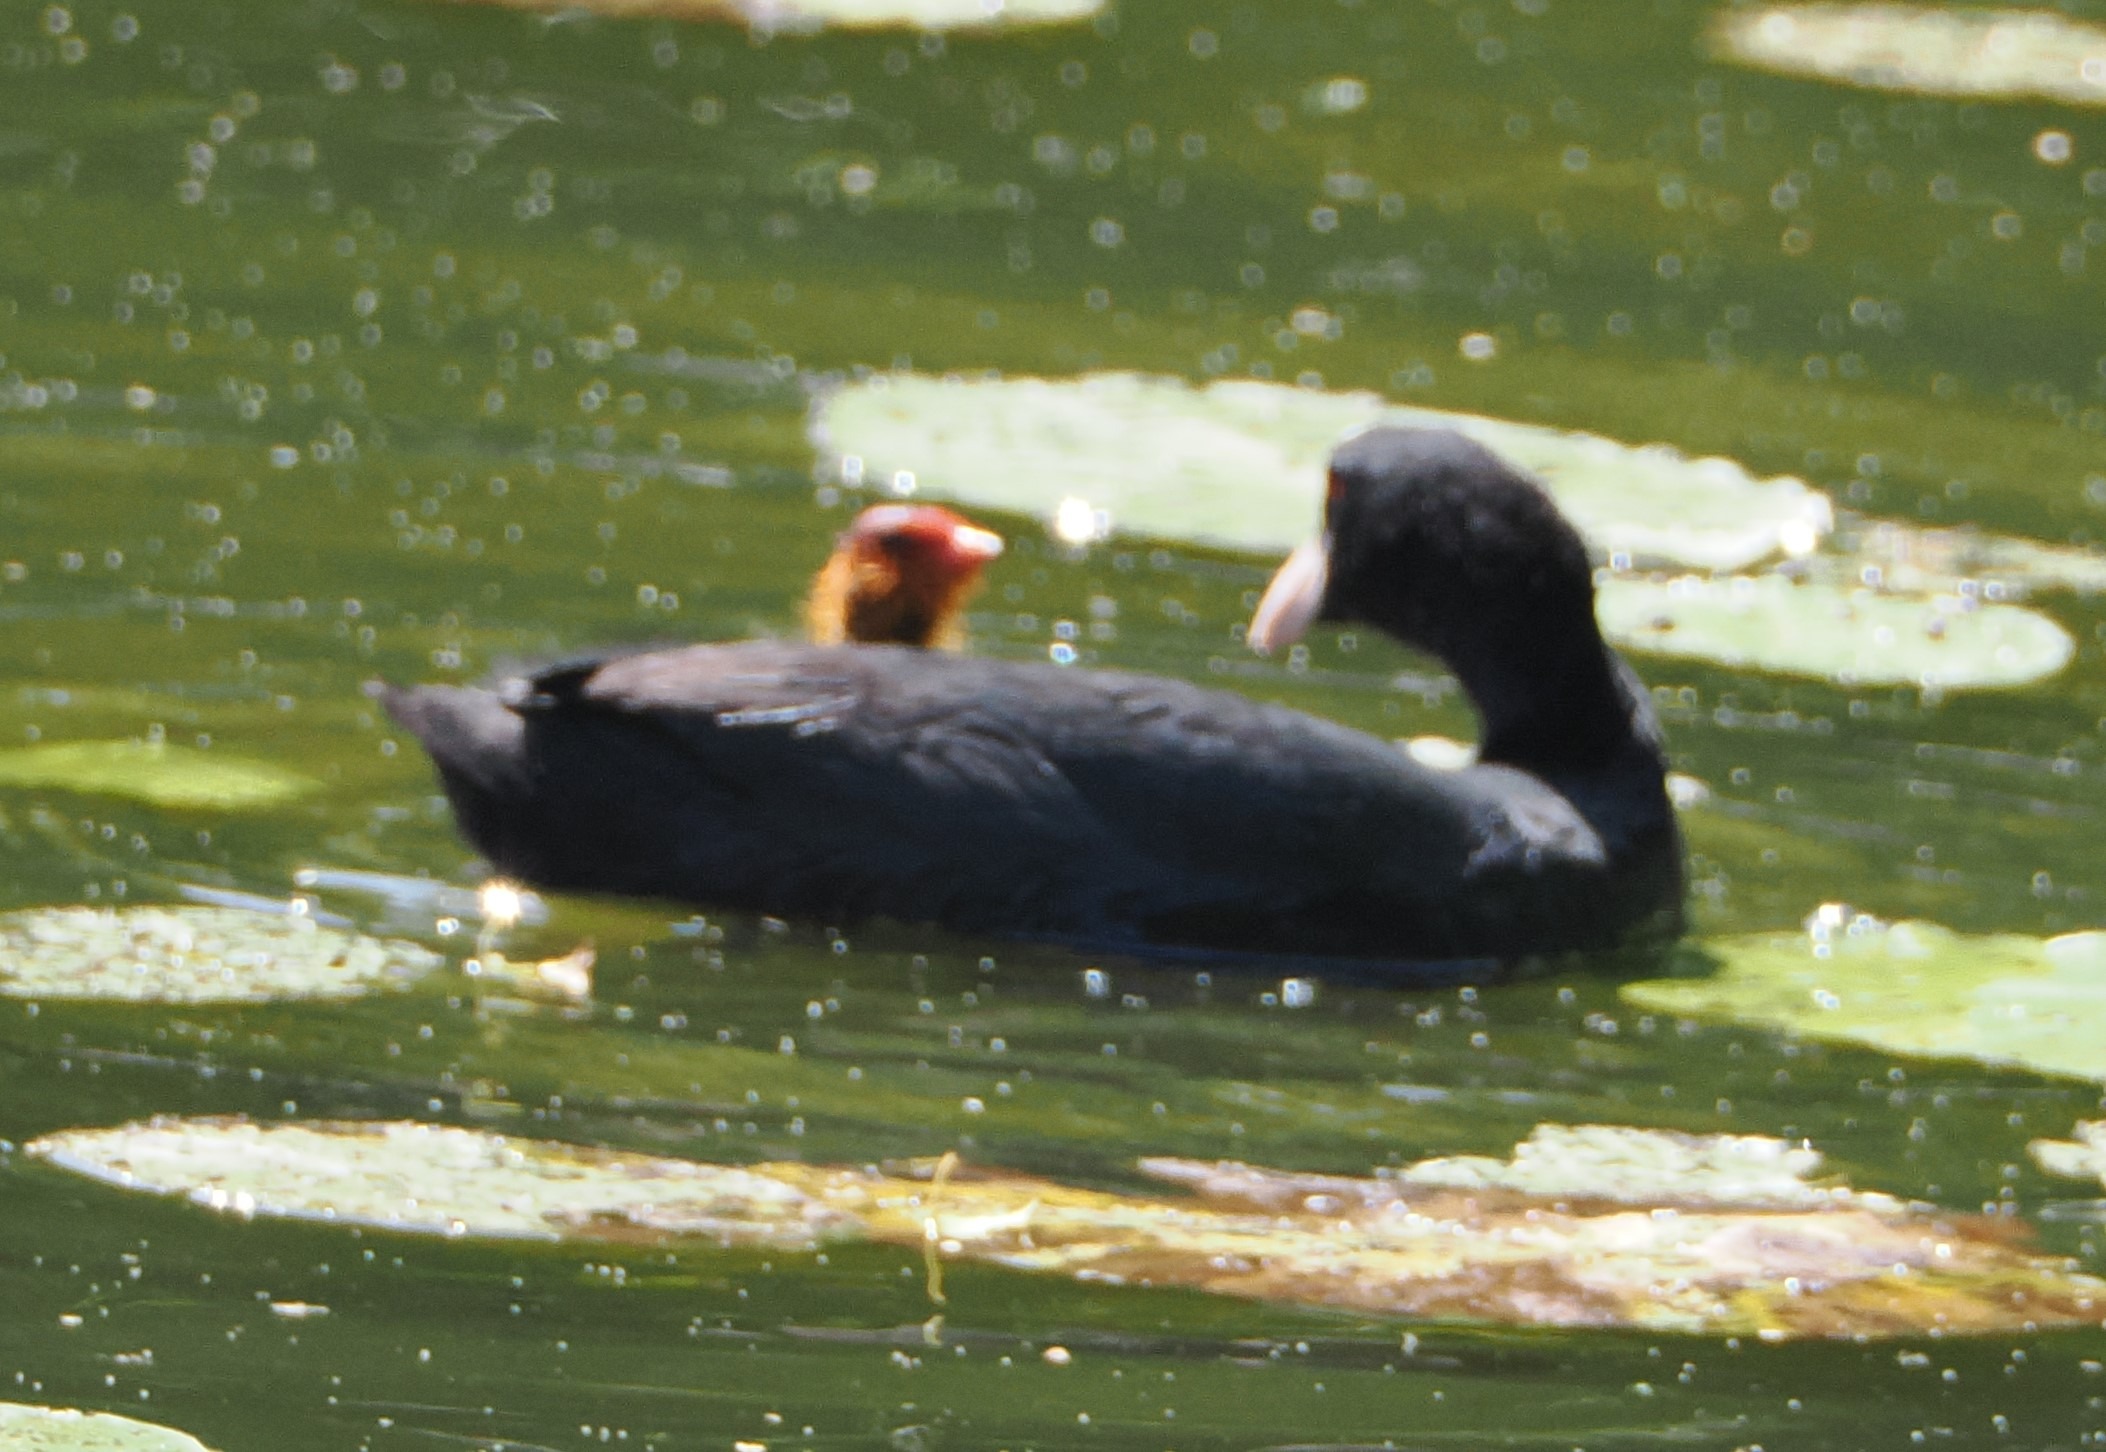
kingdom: Animalia
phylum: Chordata
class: Aves
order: Gruiformes
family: Rallidae
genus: Fulica
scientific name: Fulica atra
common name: Blishøne
